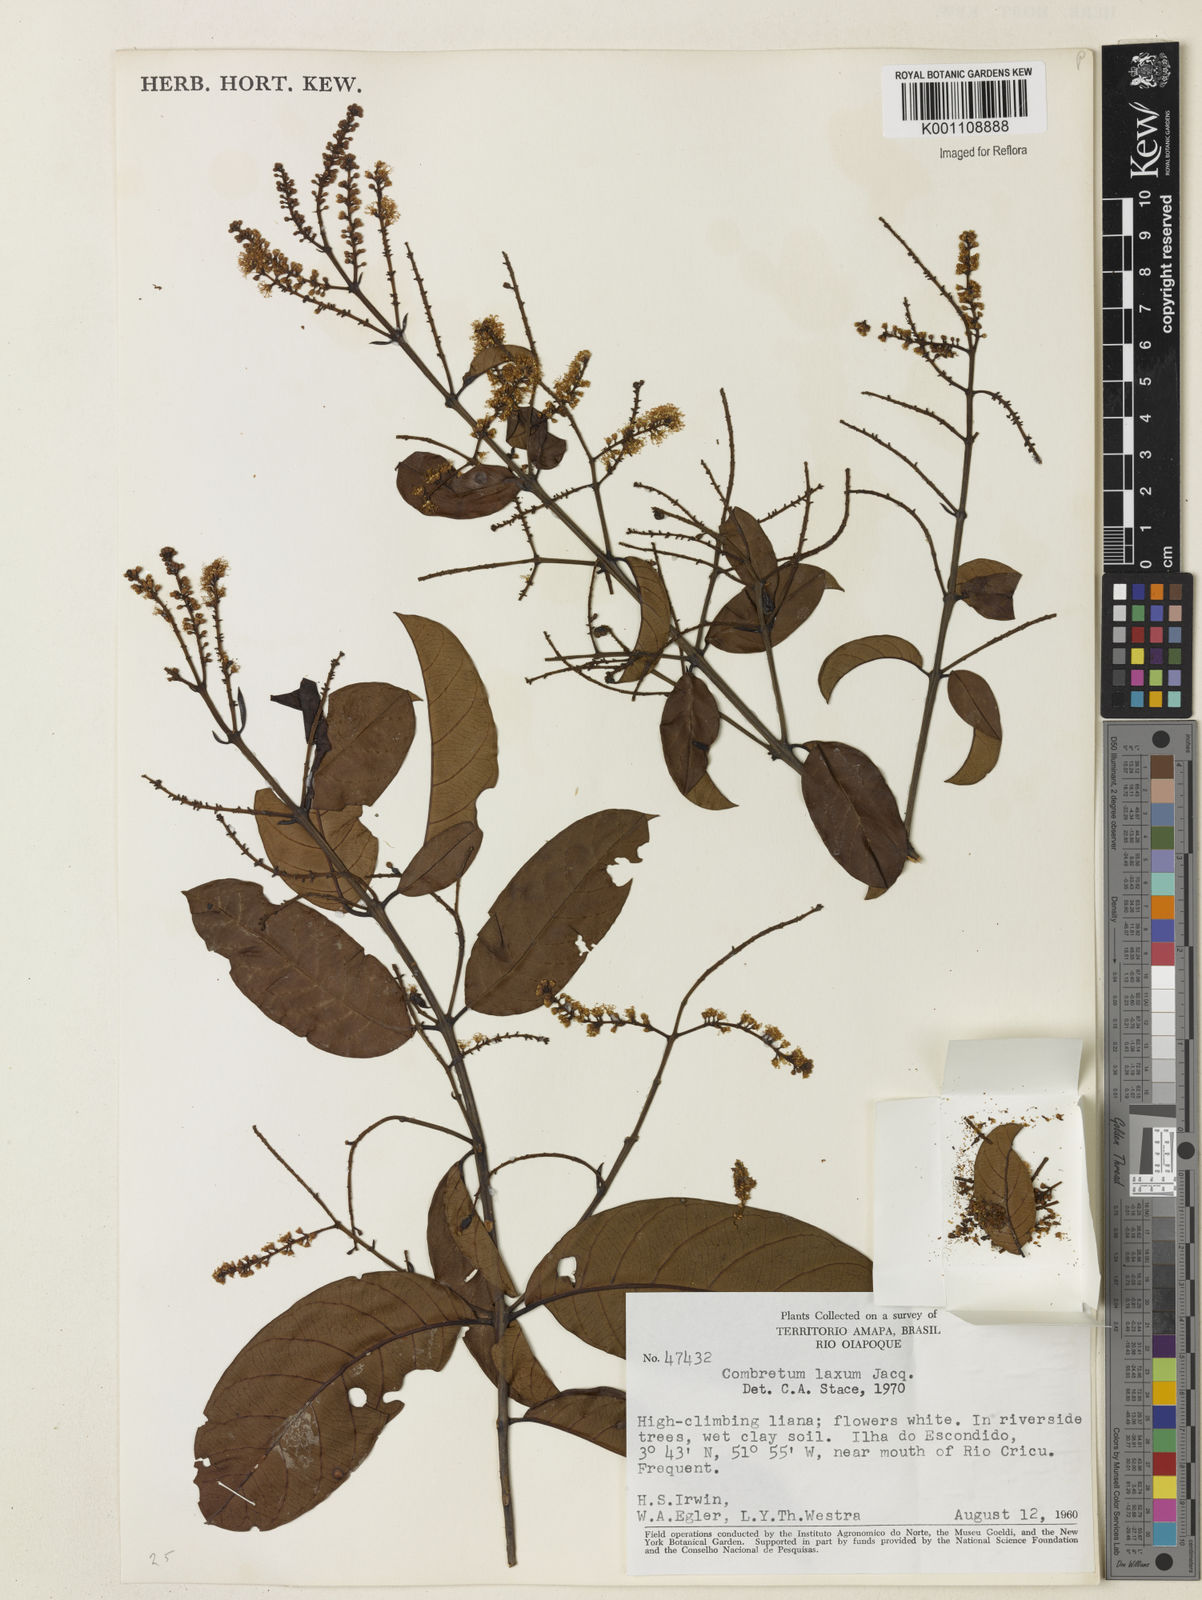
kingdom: Plantae
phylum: Tracheophyta
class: Magnoliopsida
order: Myrtales
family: Combretaceae
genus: Combretum
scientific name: Combretum laxum
